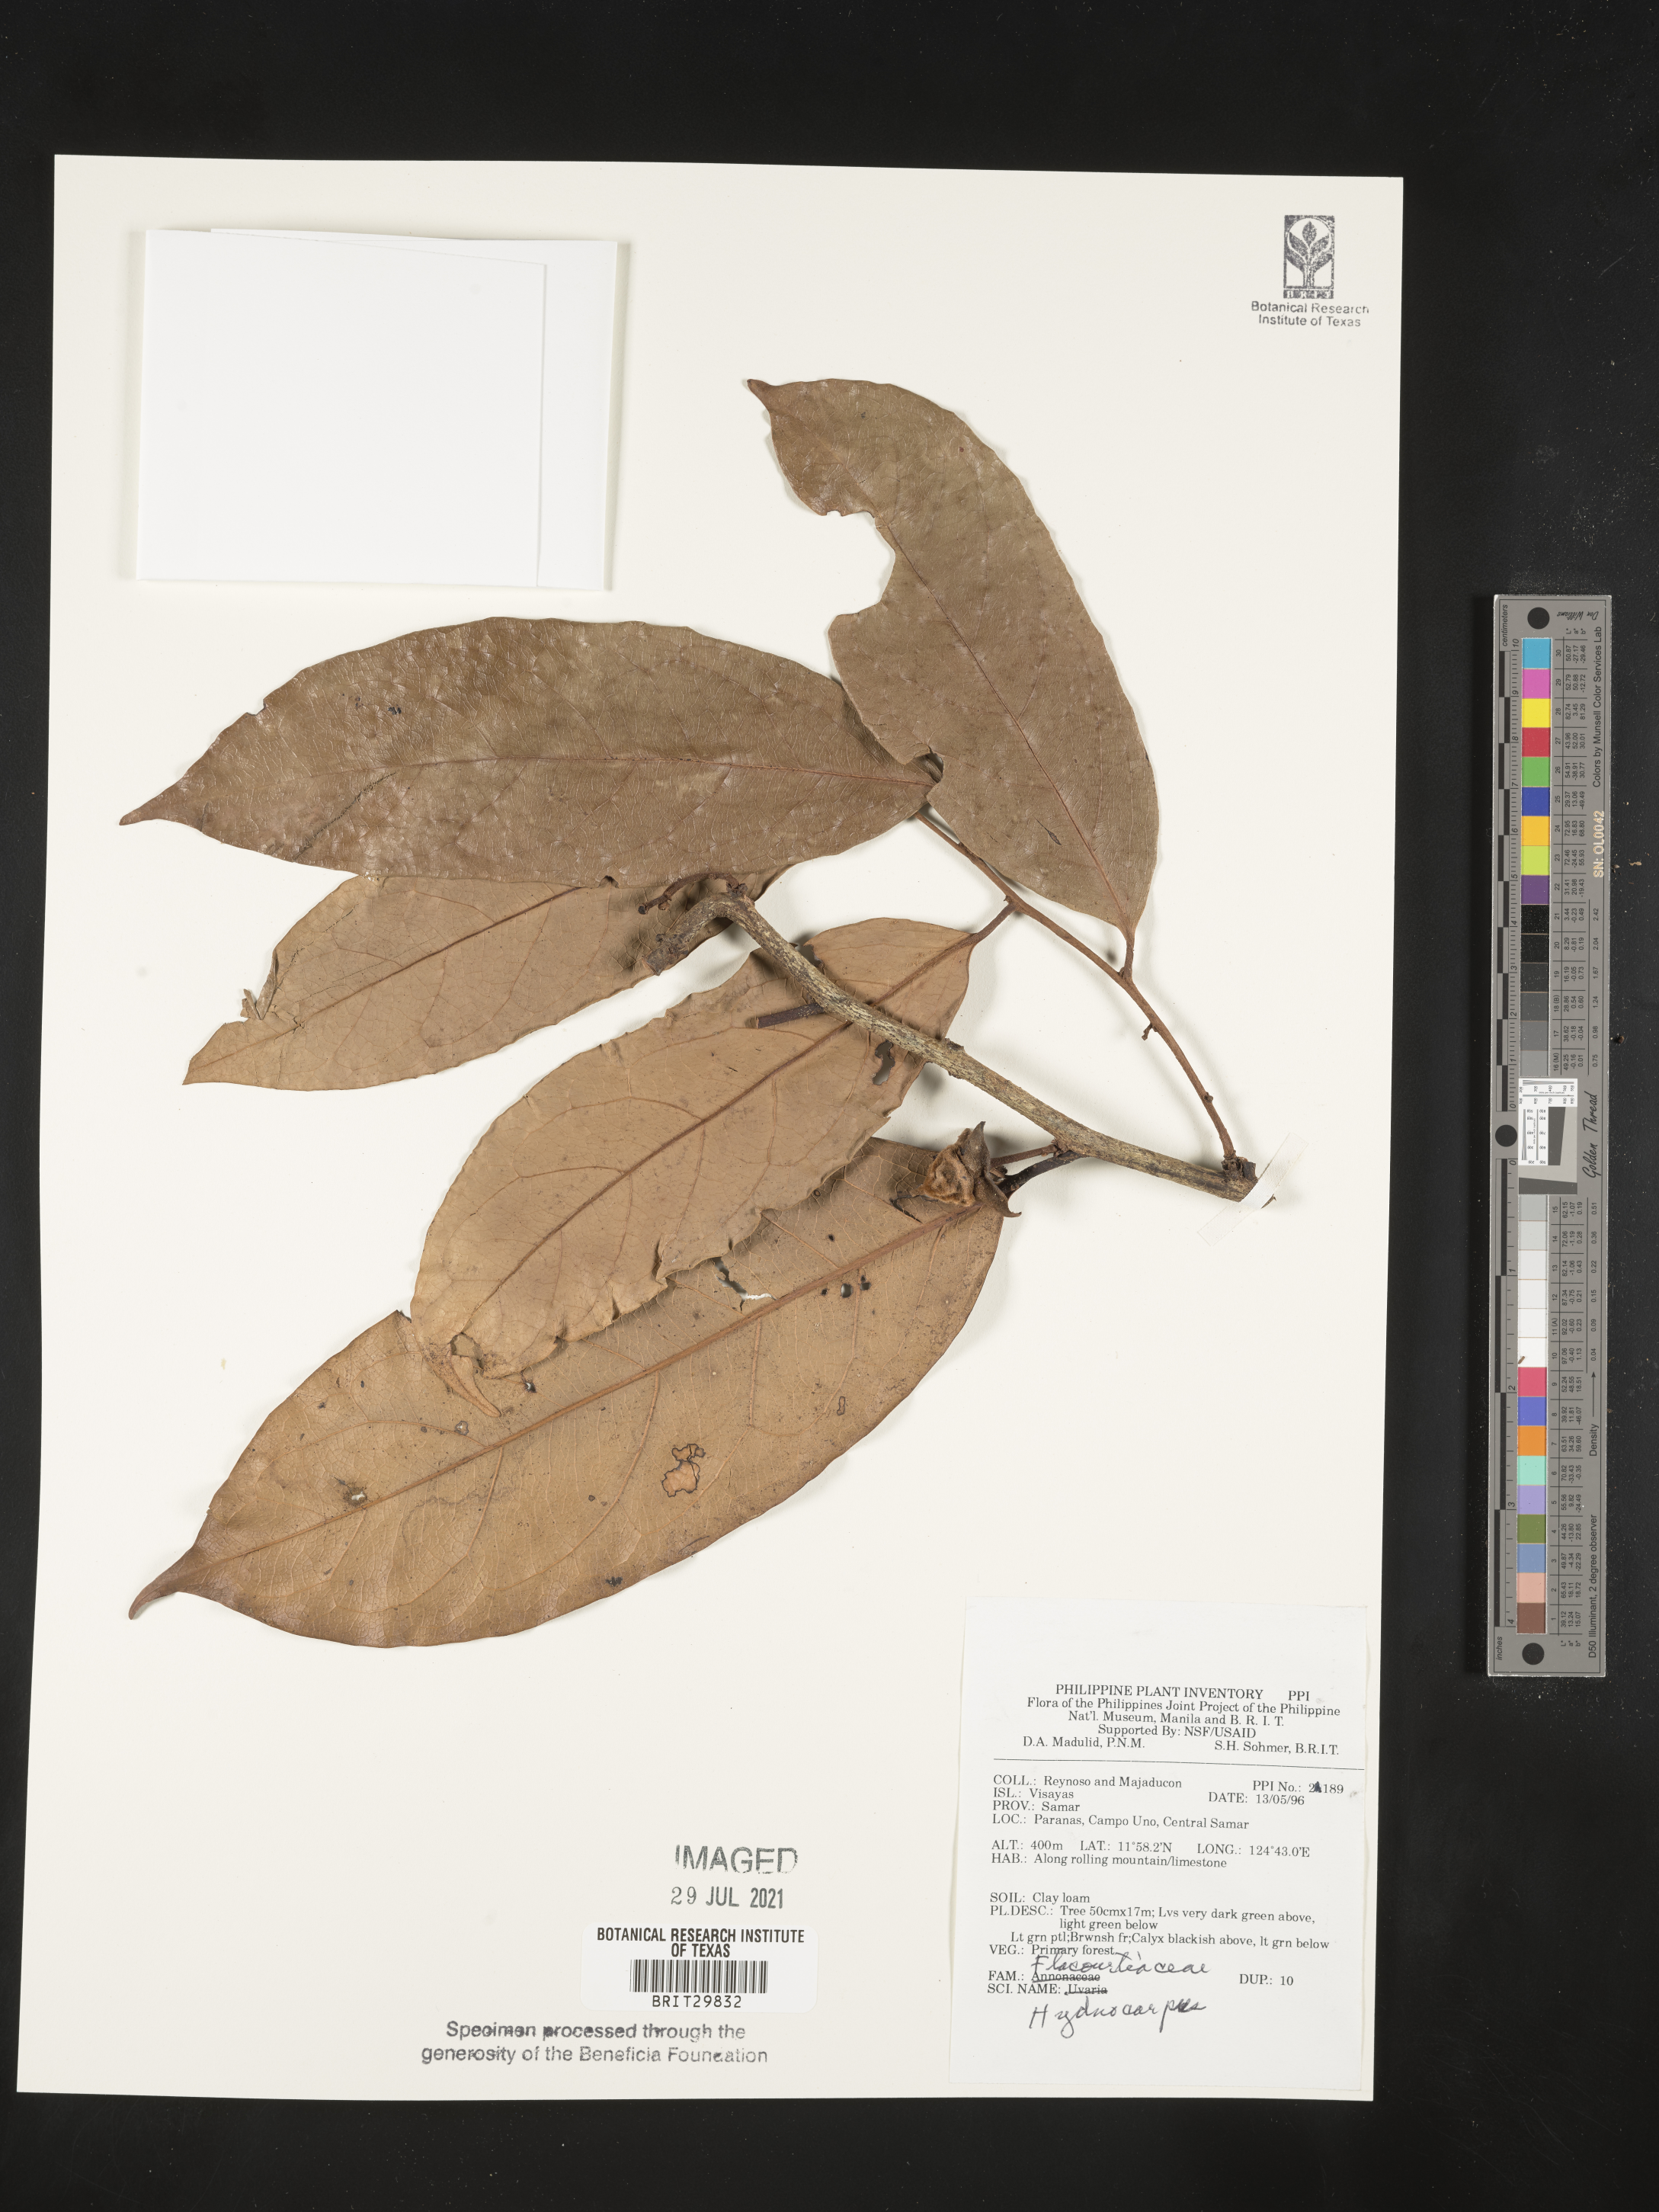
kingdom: Plantae
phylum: Tracheophyta
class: Magnoliopsida
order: Malpighiales
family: Achariaceae
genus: Hydnocarpus
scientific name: Hydnocarpus
